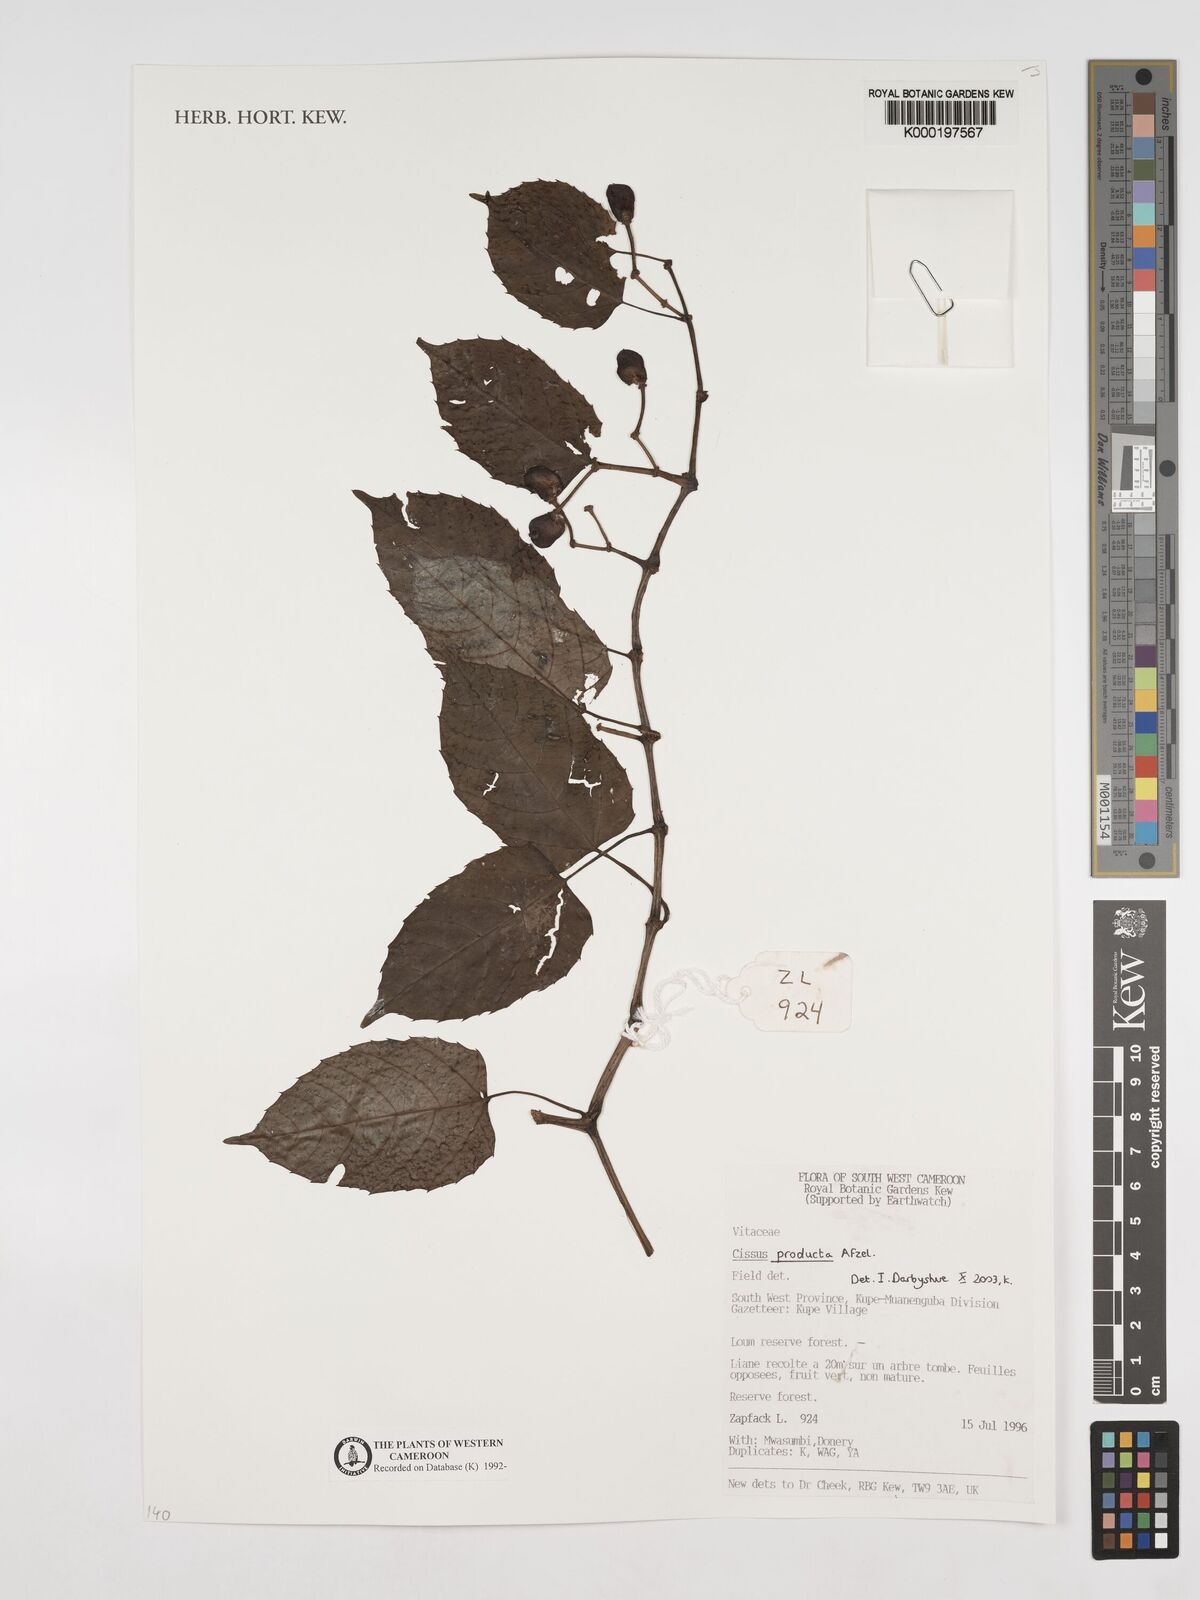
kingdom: Plantae
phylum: Tracheophyta
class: Magnoliopsida
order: Vitales
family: Vitaceae
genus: Cissus
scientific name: Cissus producta
